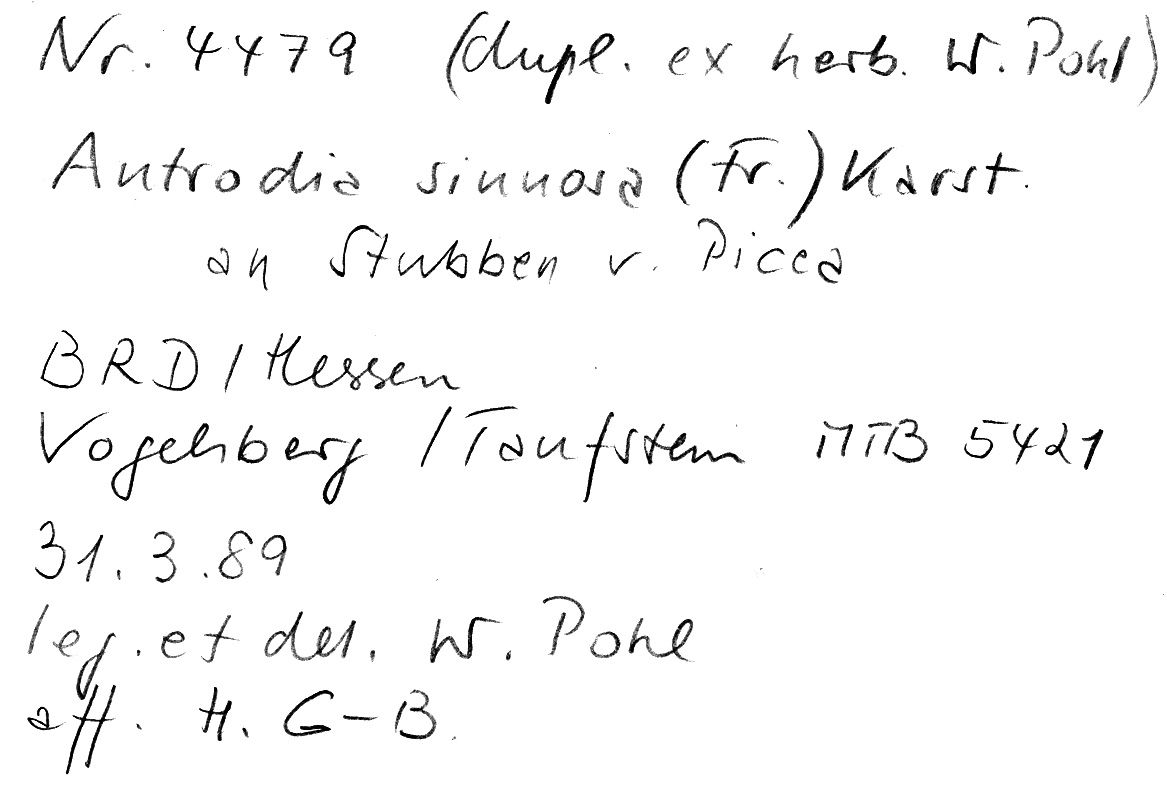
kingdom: Plantae
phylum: Tracheophyta
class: Pinopsida
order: Pinales
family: Pinaceae
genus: Picea
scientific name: Picea
